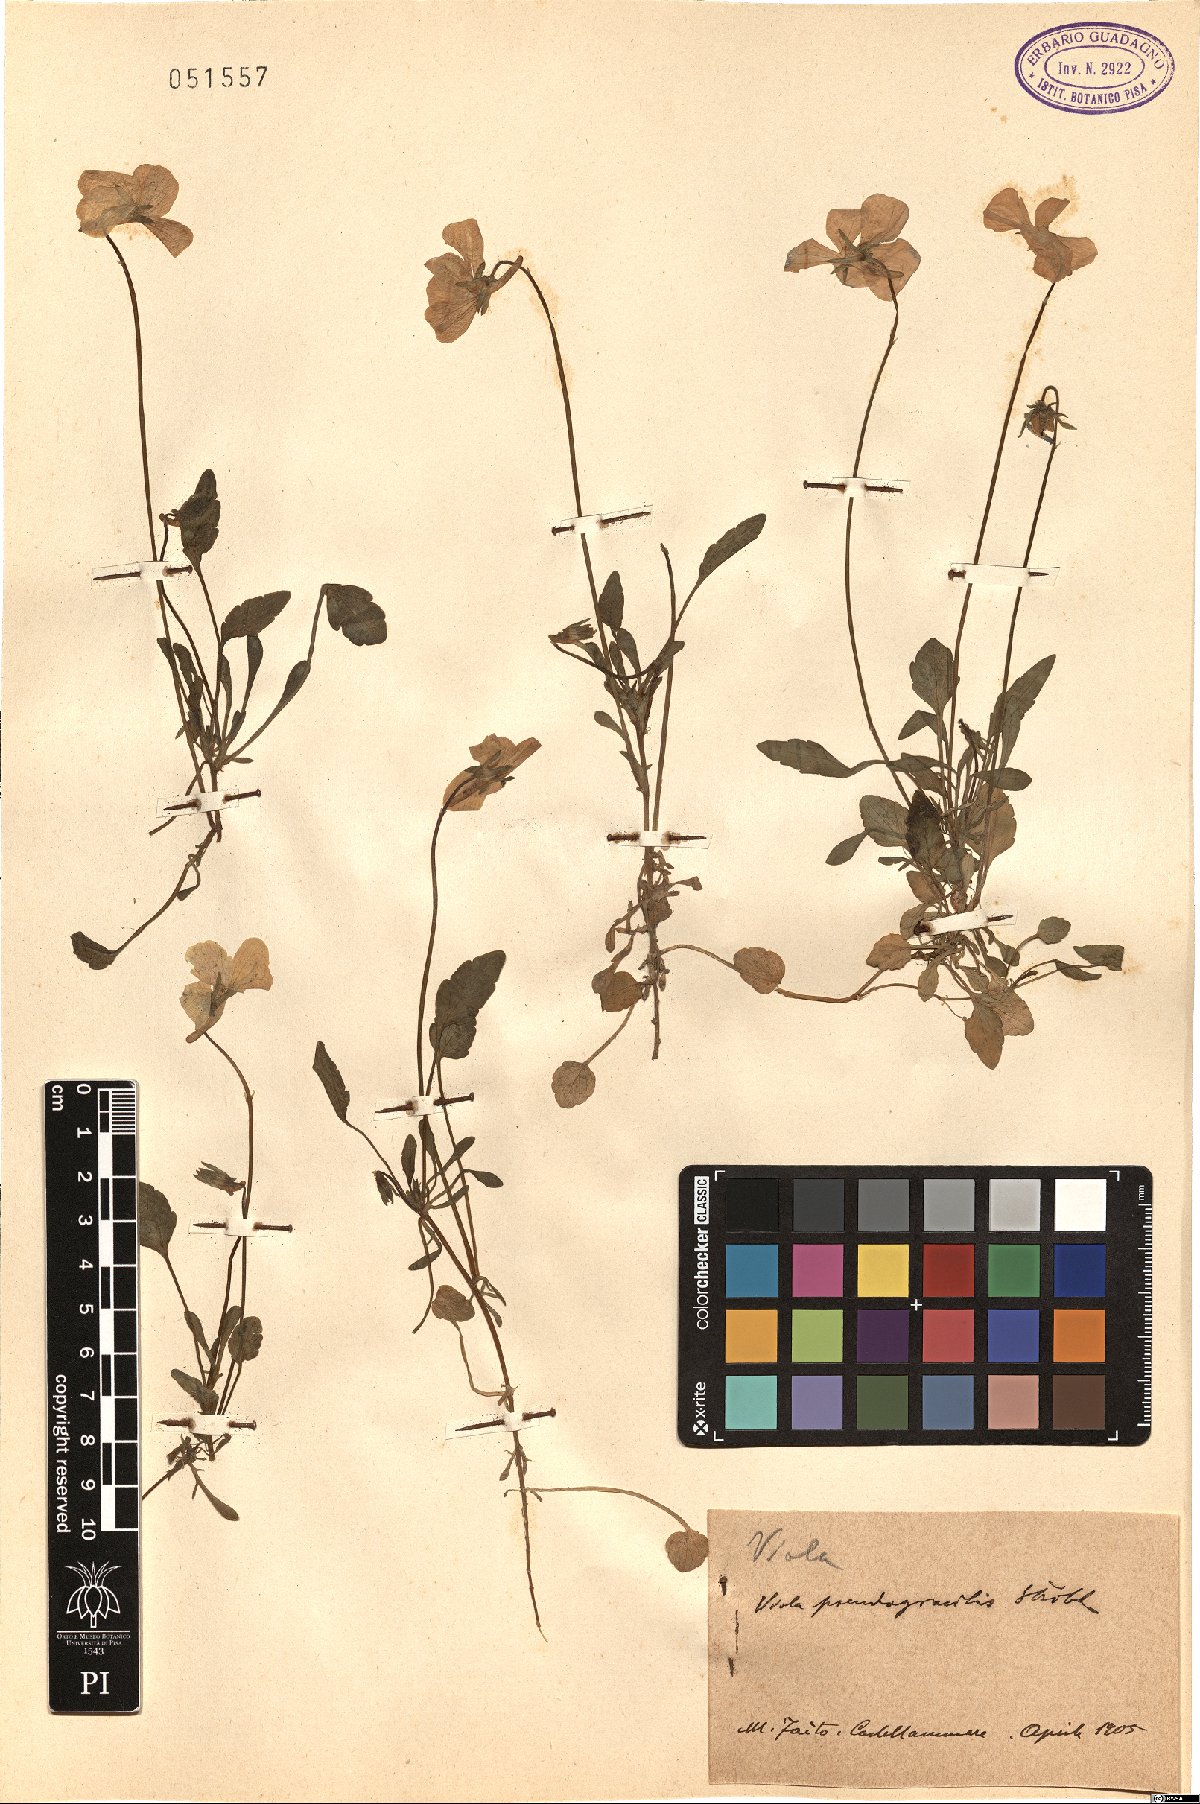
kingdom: Plantae
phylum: Tracheophyta
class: Magnoliopsida
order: Malpighiales
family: Violaceae
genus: Viola
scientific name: Viola pseudogracilis
